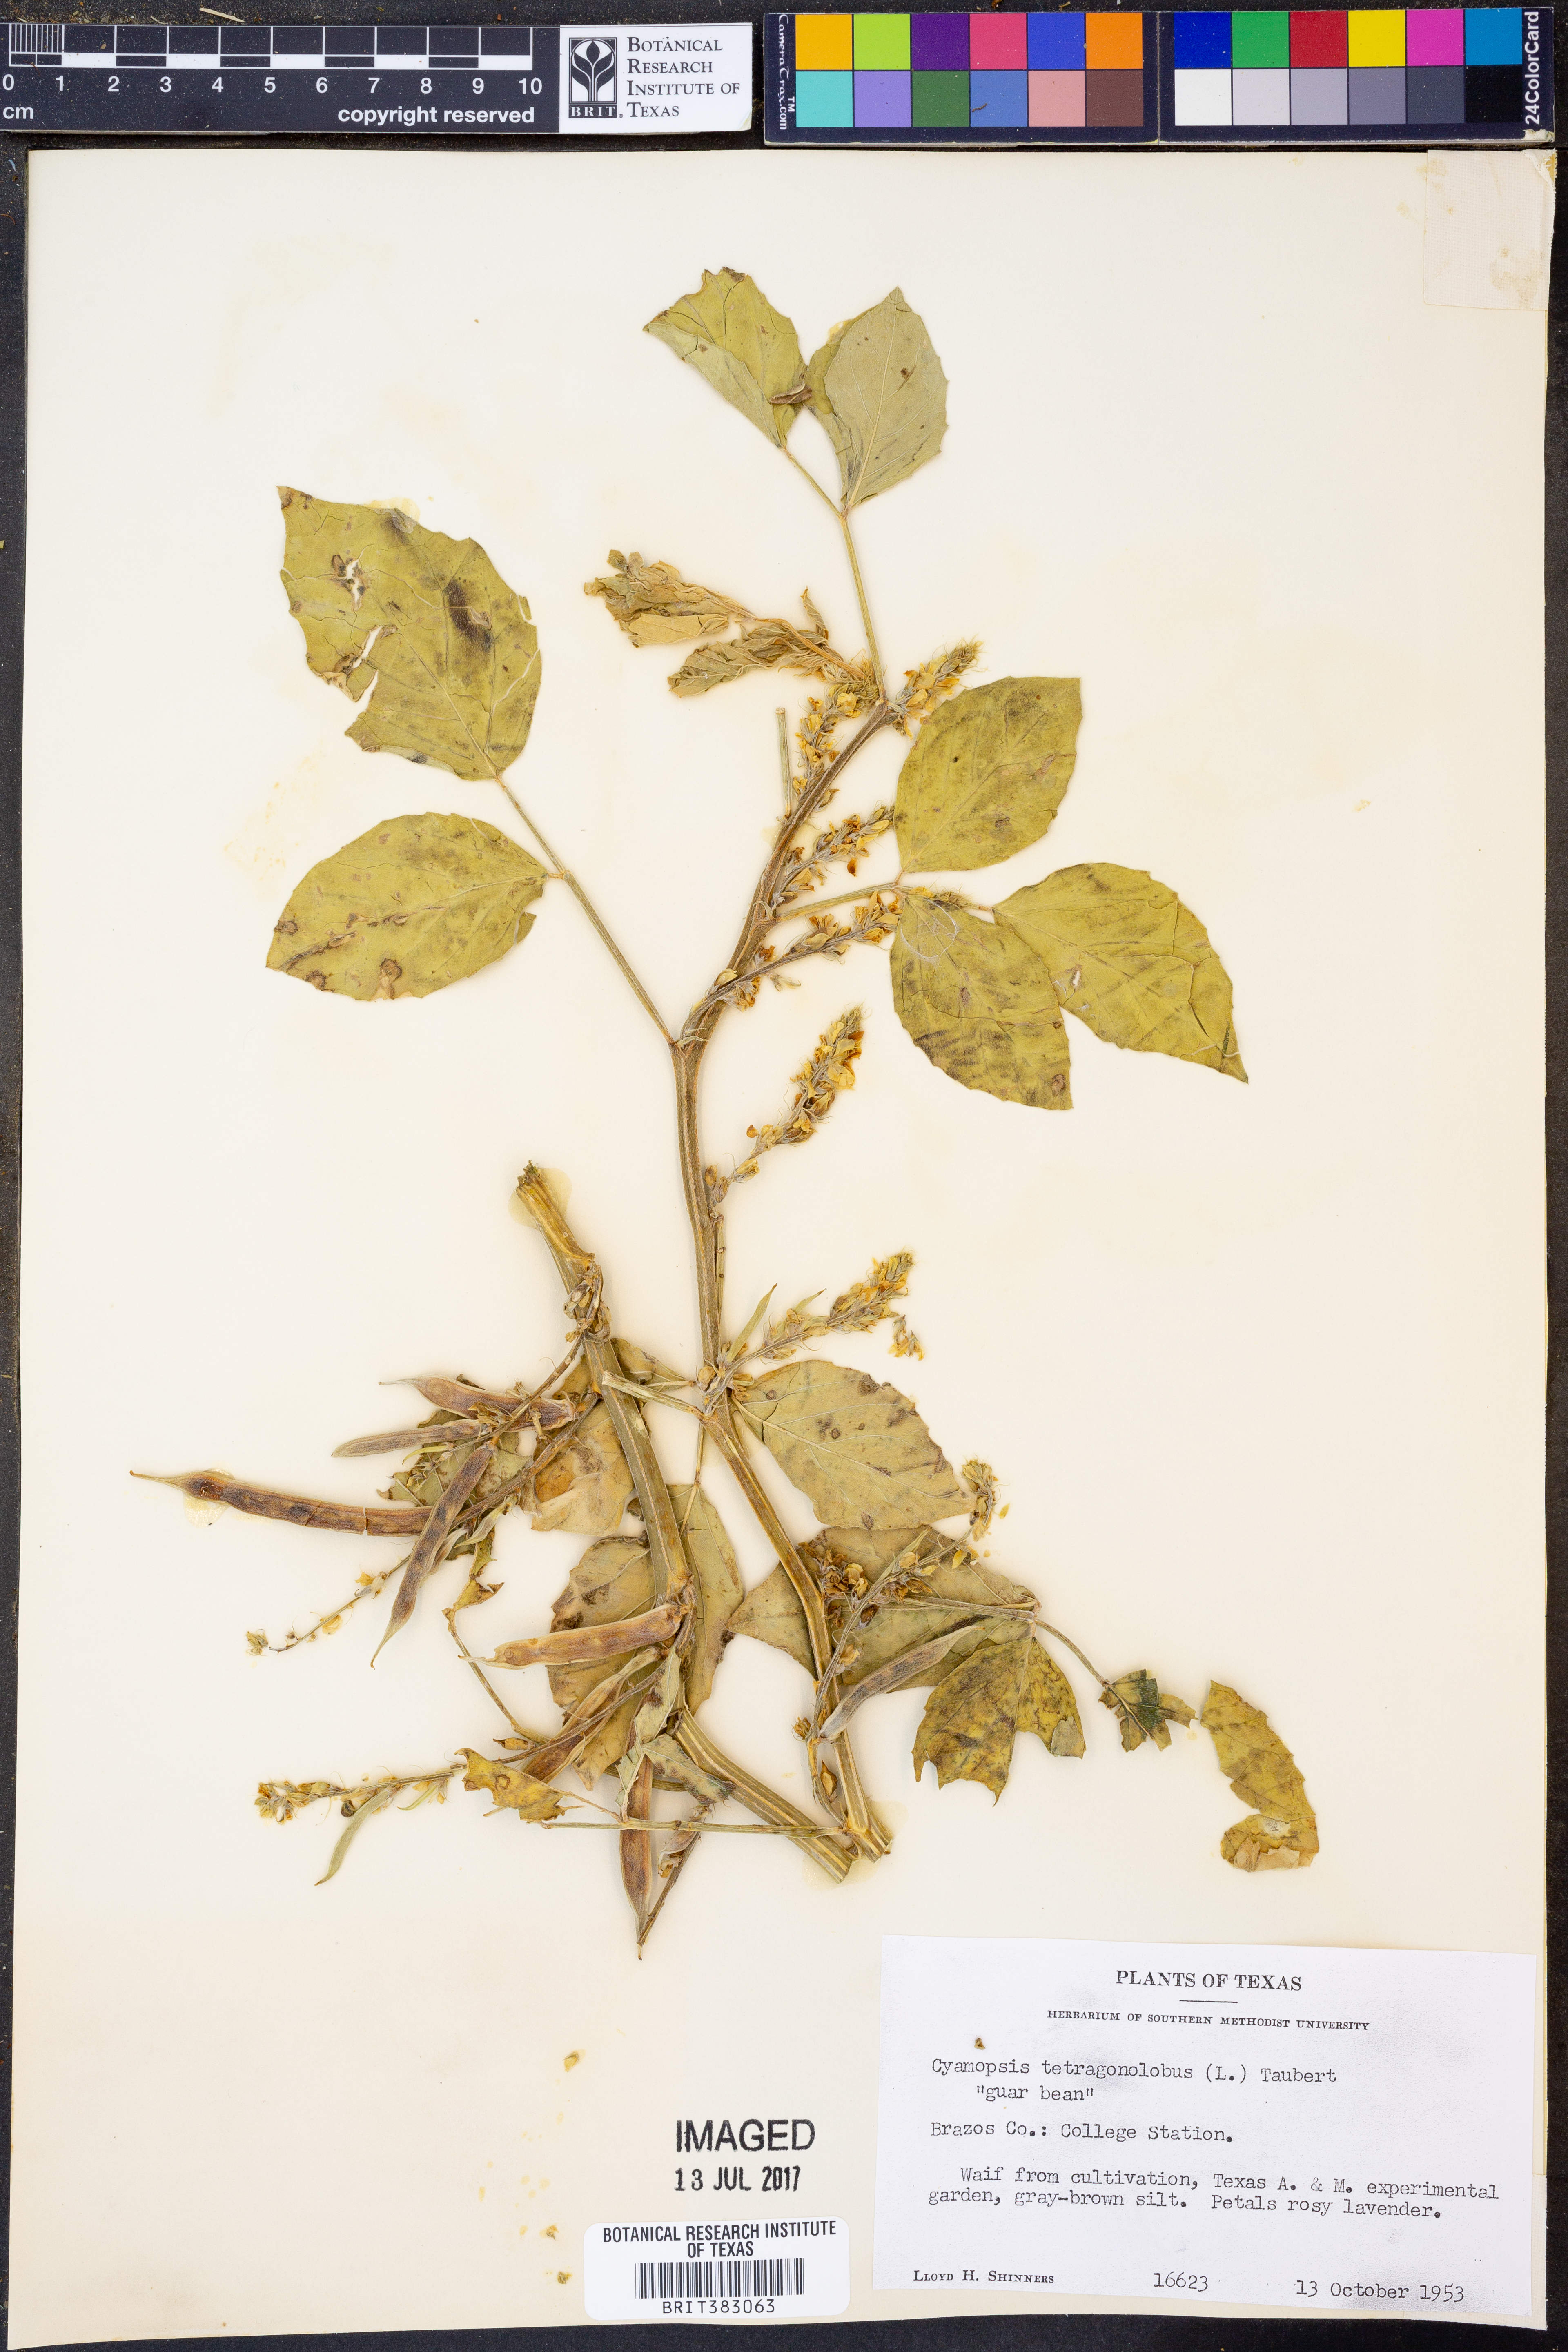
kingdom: Plantae
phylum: Tracheophyta
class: Magnoliopsida
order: Fabales
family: Fabaceae
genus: Cyamopsis
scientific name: Cyamopsis tetragonoloba
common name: Cluster-bean
